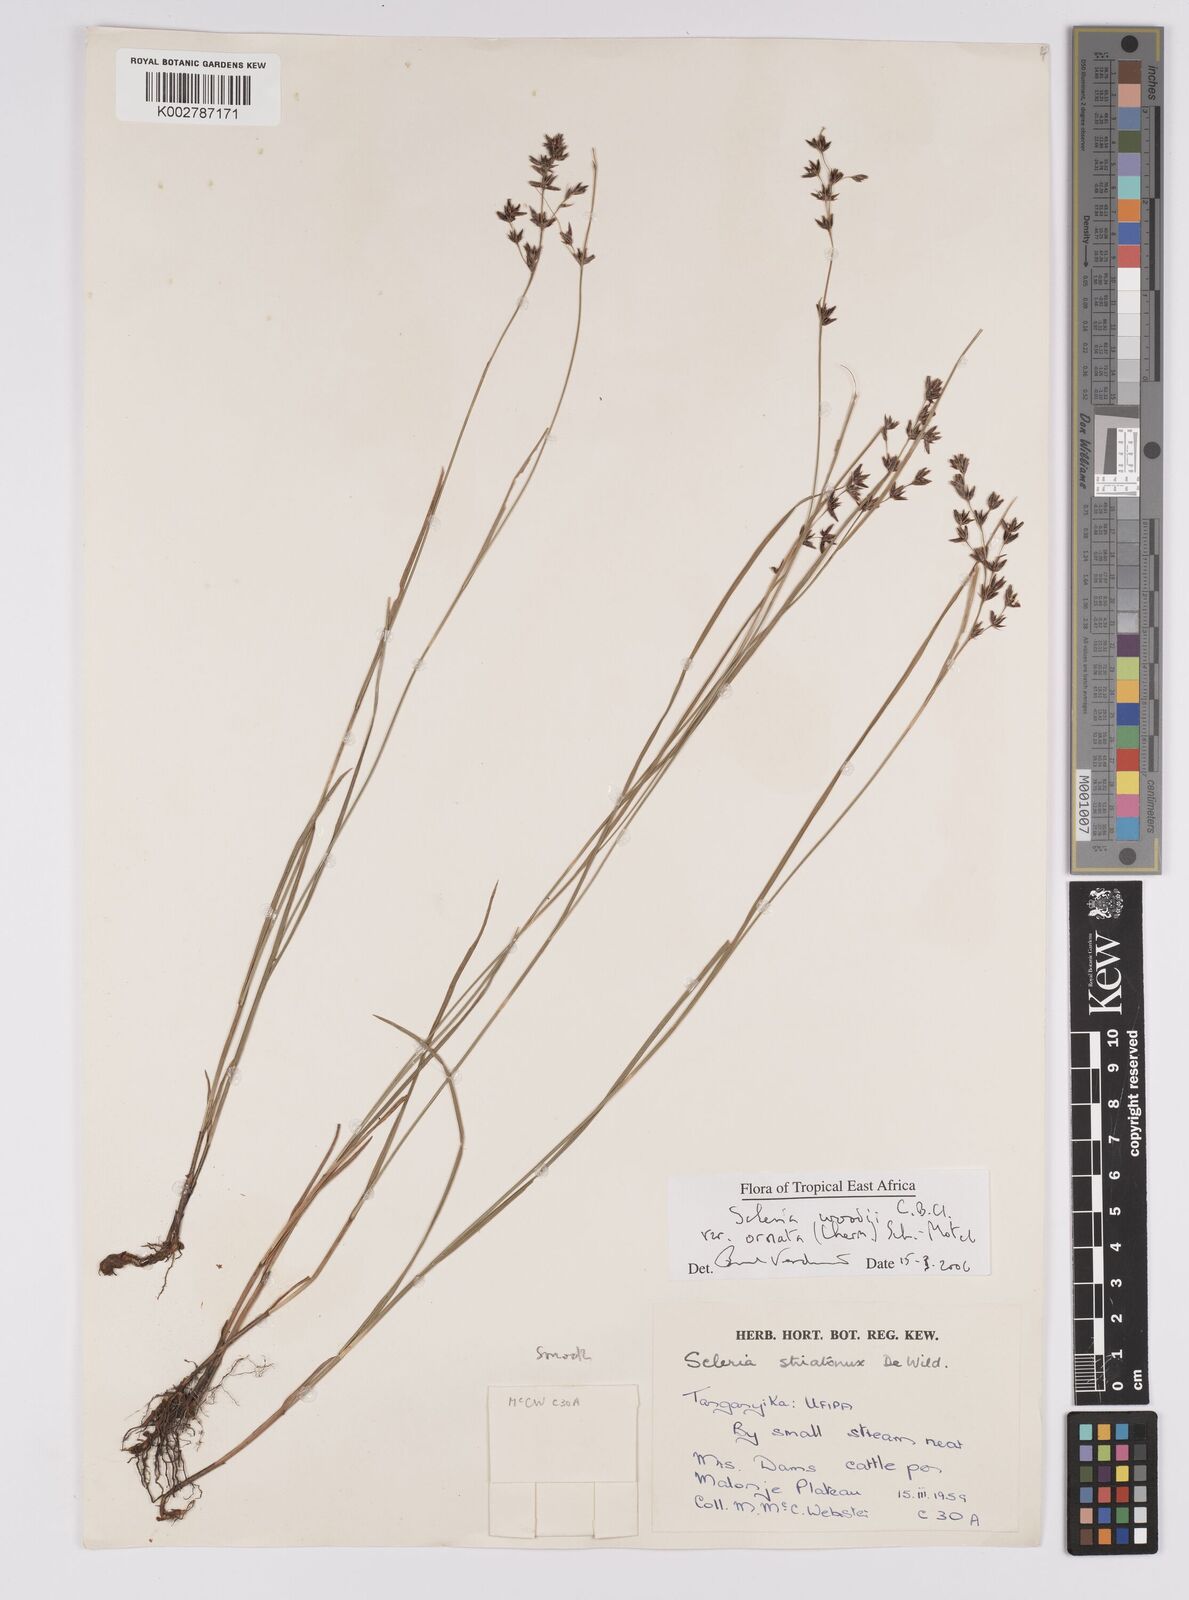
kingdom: Plantae
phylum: Tracheophyta
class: Liliopsida
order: Poales
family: Cyperaceae
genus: Scleria
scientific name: Scleria woodii
